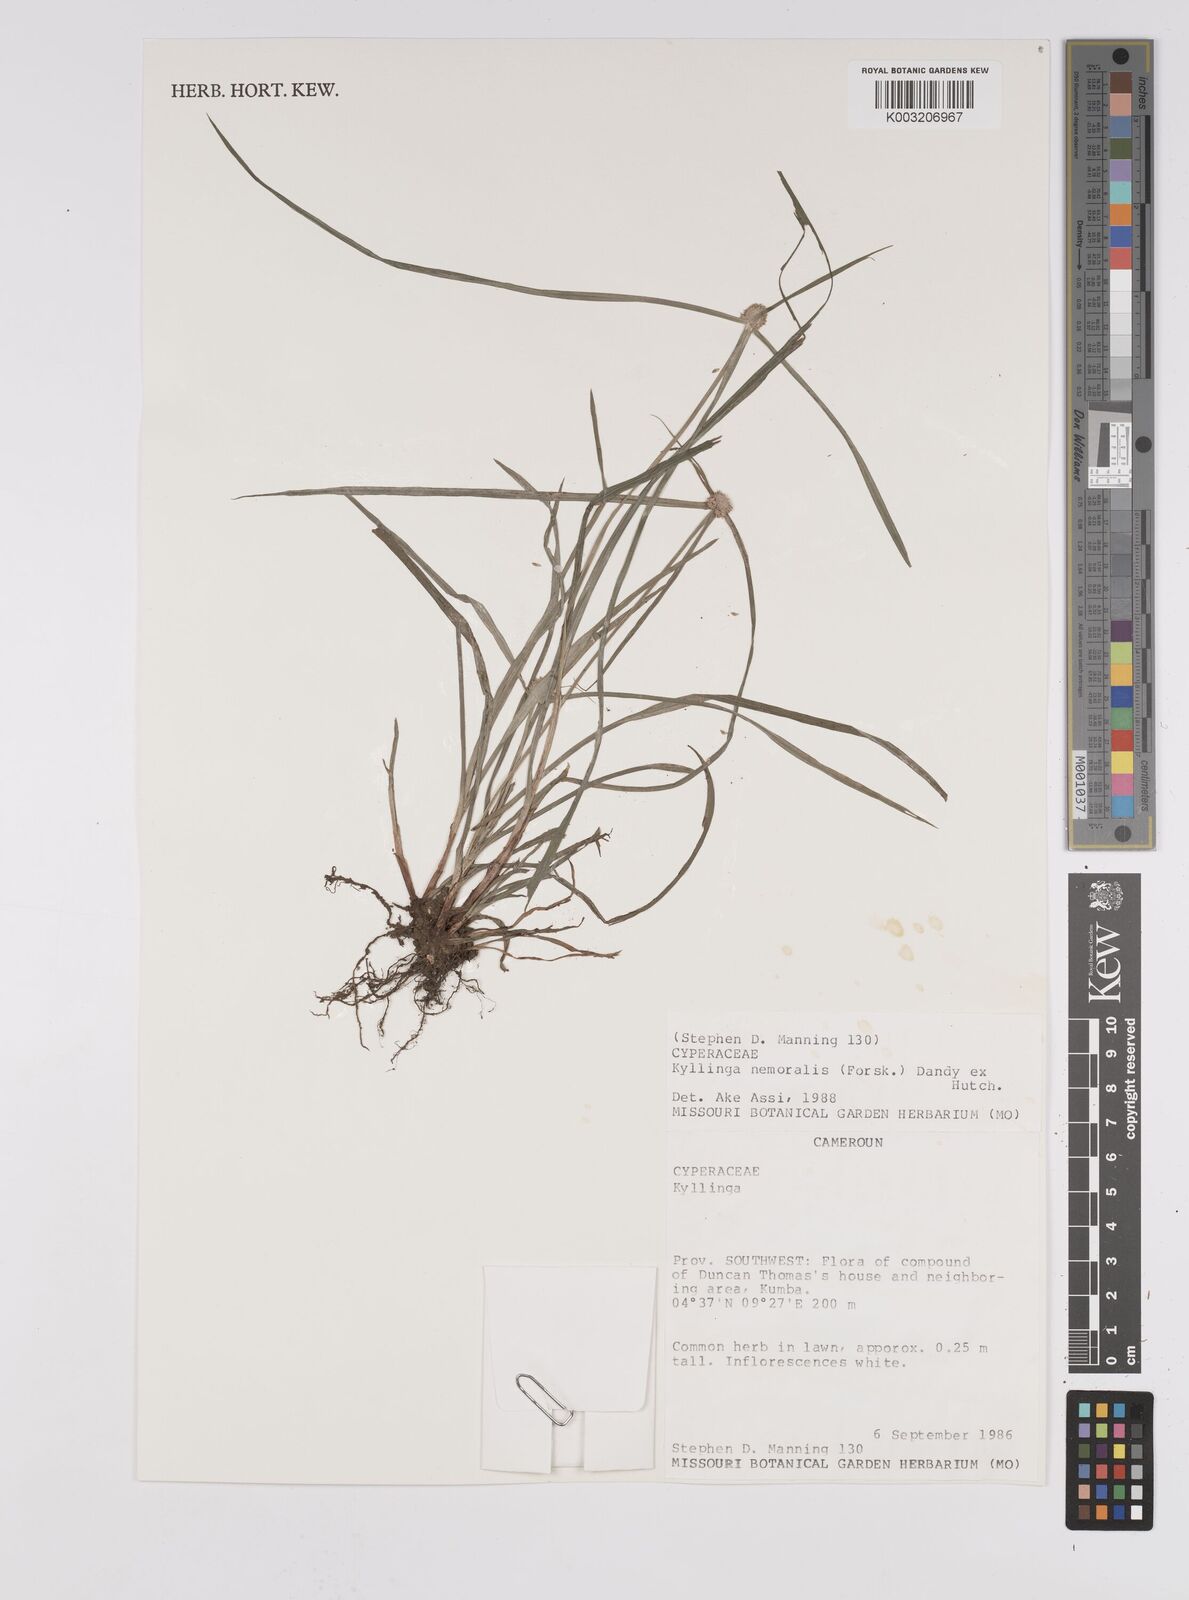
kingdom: Plantae
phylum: Tracheophyta
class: Liliopsida
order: Poales
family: Cyperaceae
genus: Cyperus
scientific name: Cyperus nemoralis
